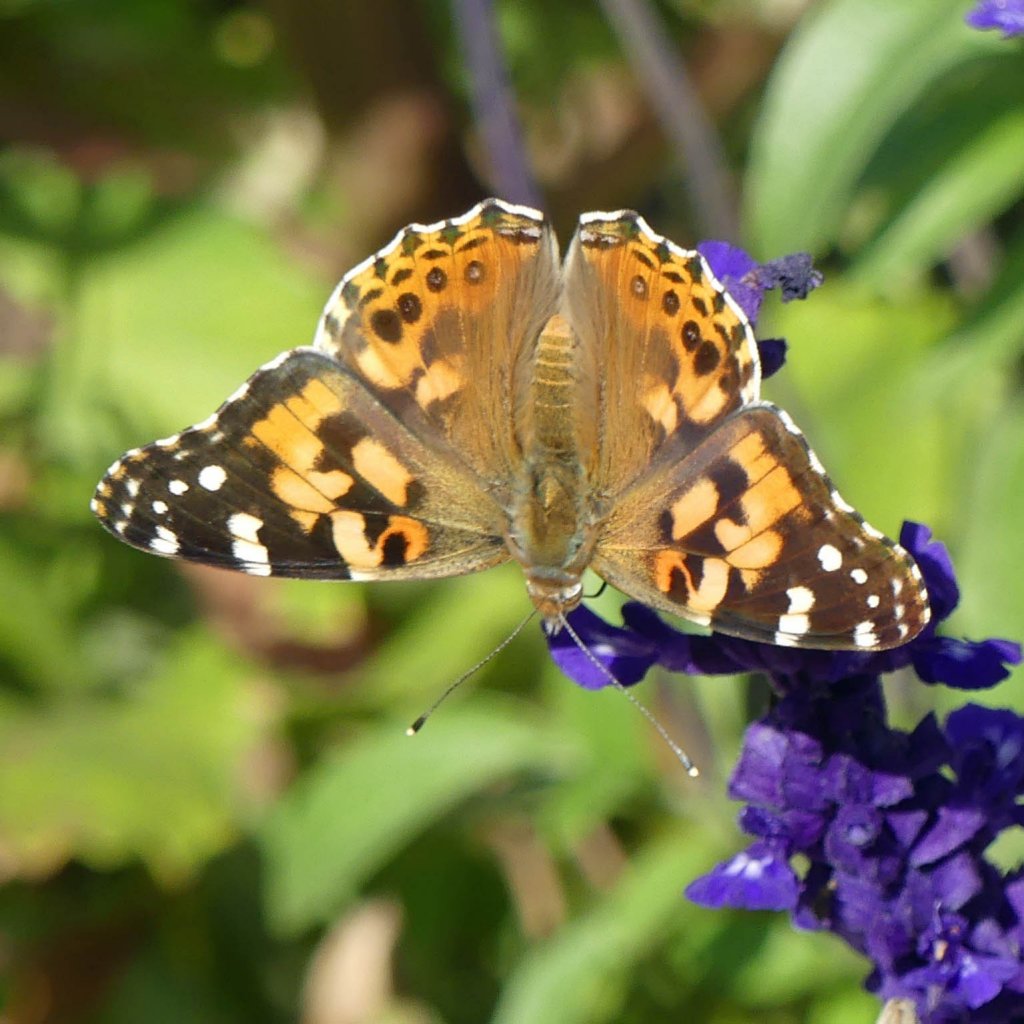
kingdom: Animalia
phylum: Arthropoda
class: Insecta
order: Lepidoptera
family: Nymphalidae
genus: Vanessa
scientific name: Vanessa cardui
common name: Painted Lady
